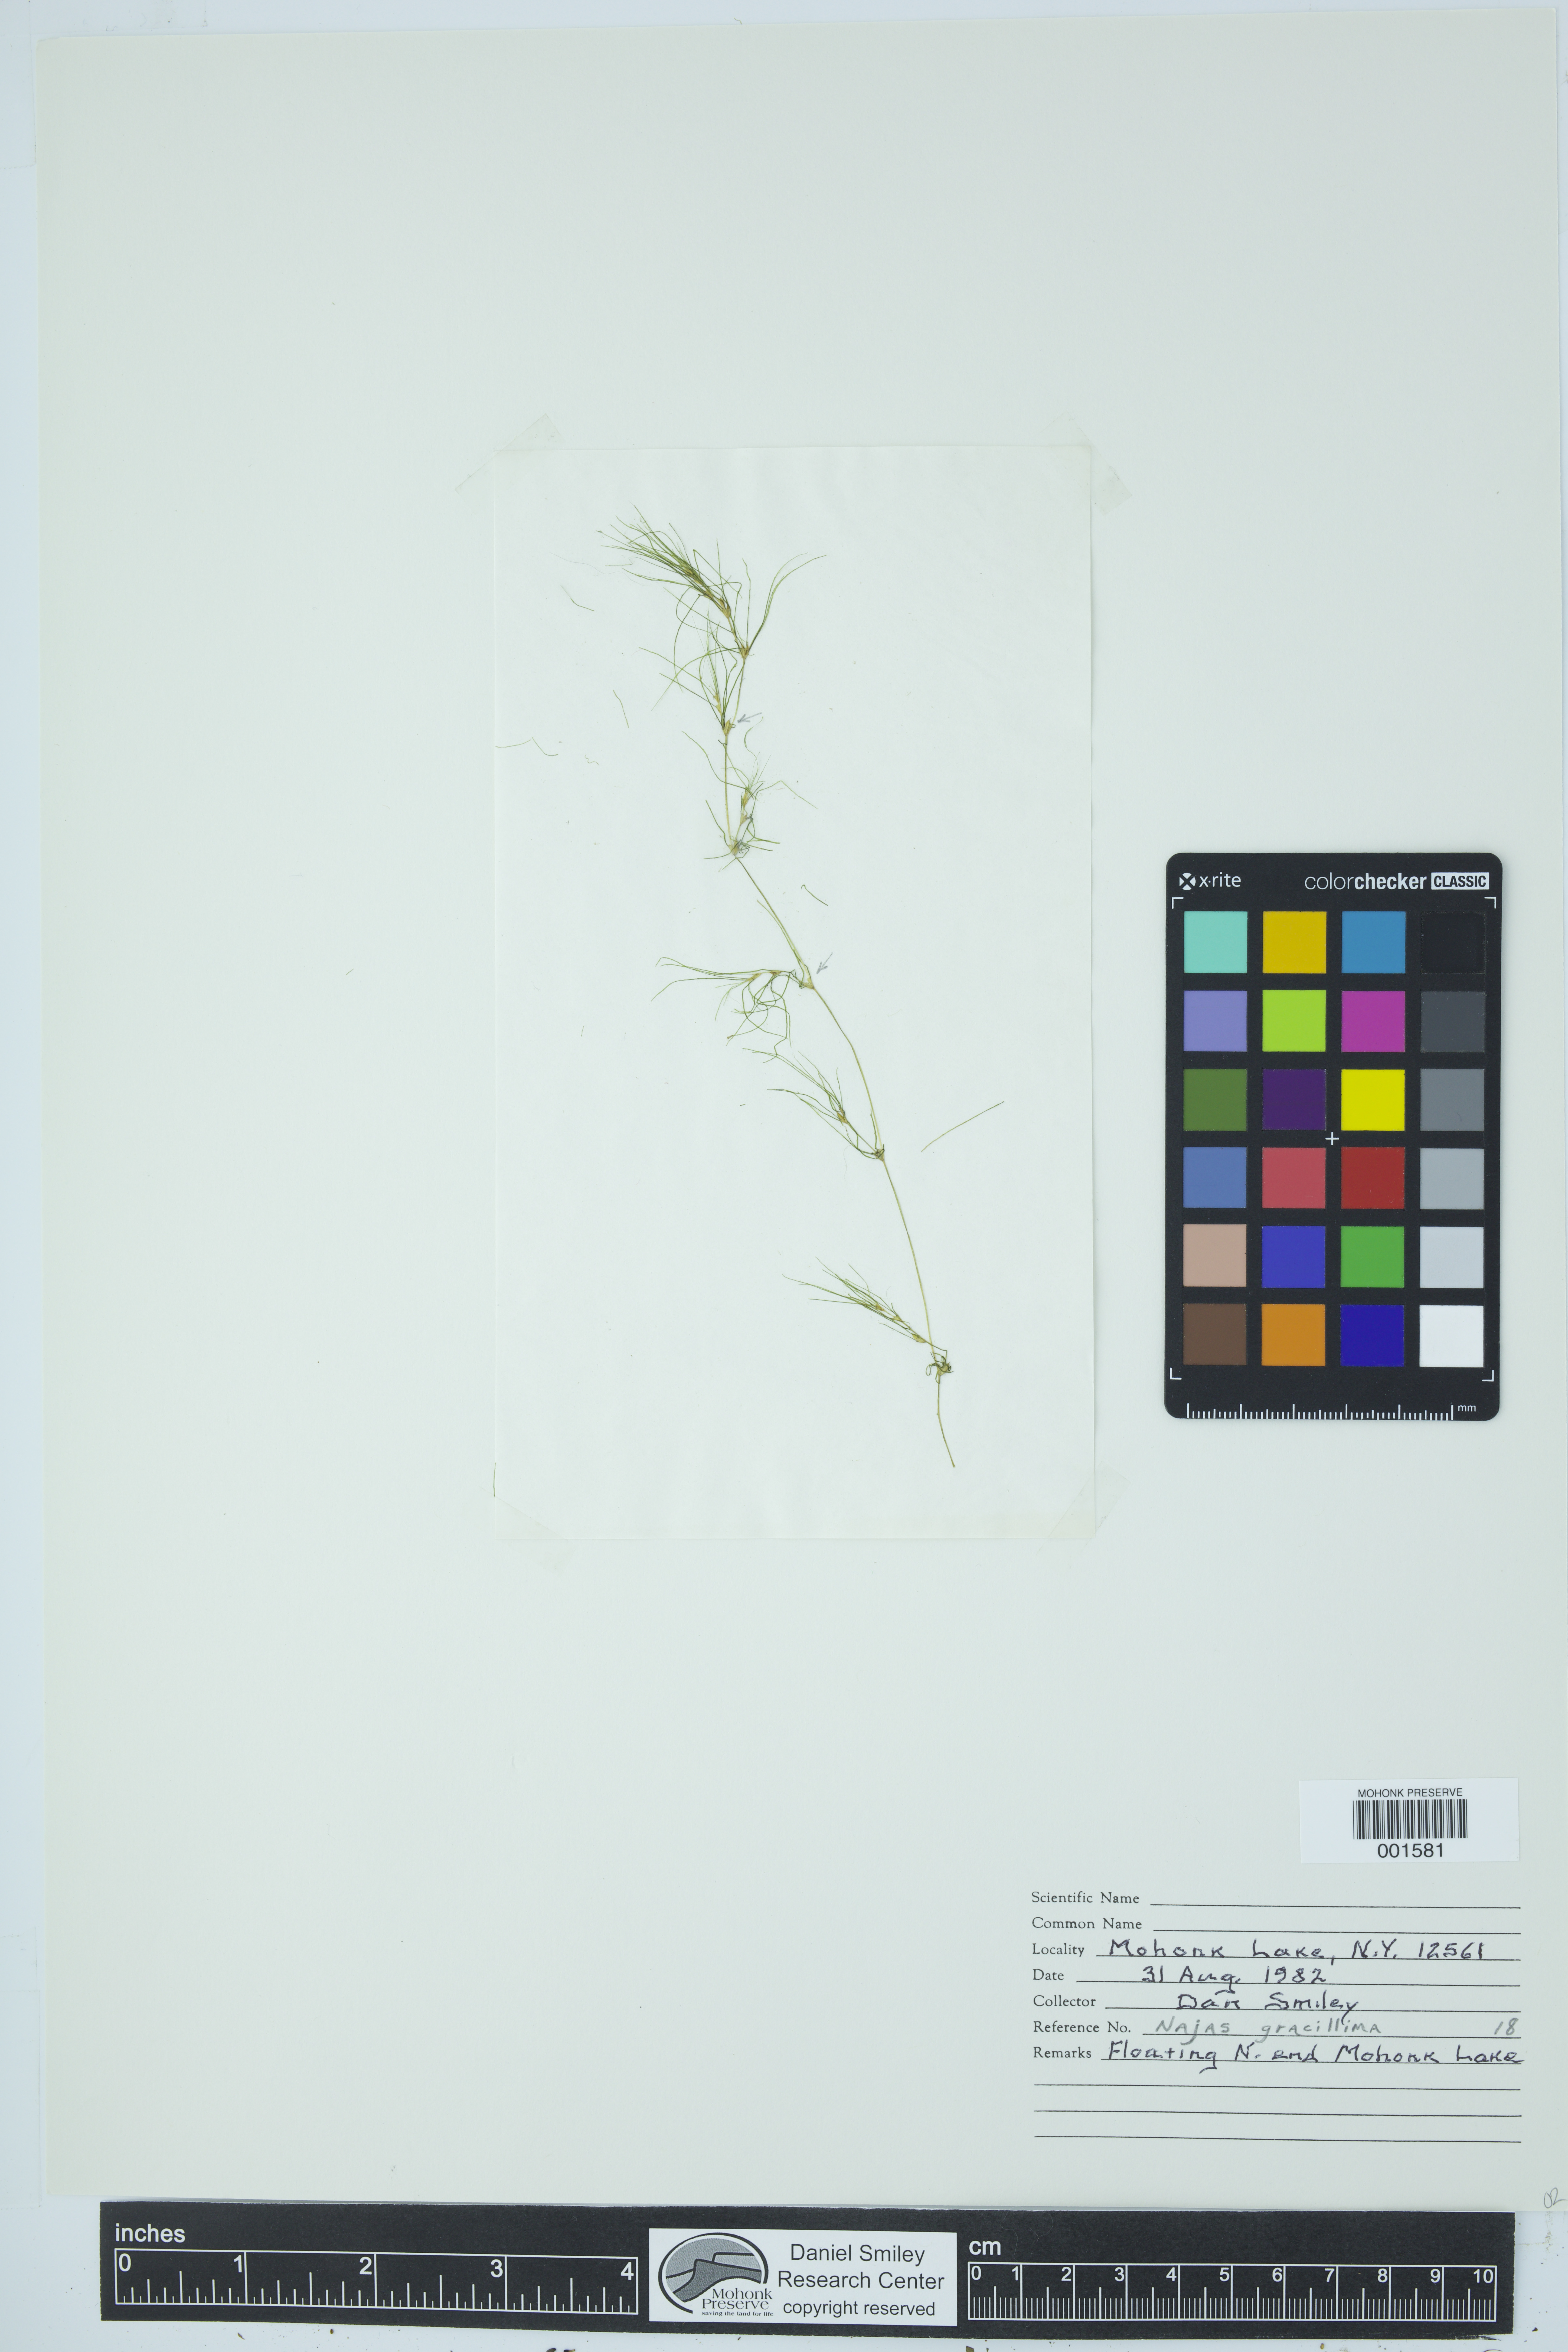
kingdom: Animalia
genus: Naja
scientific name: Naja
